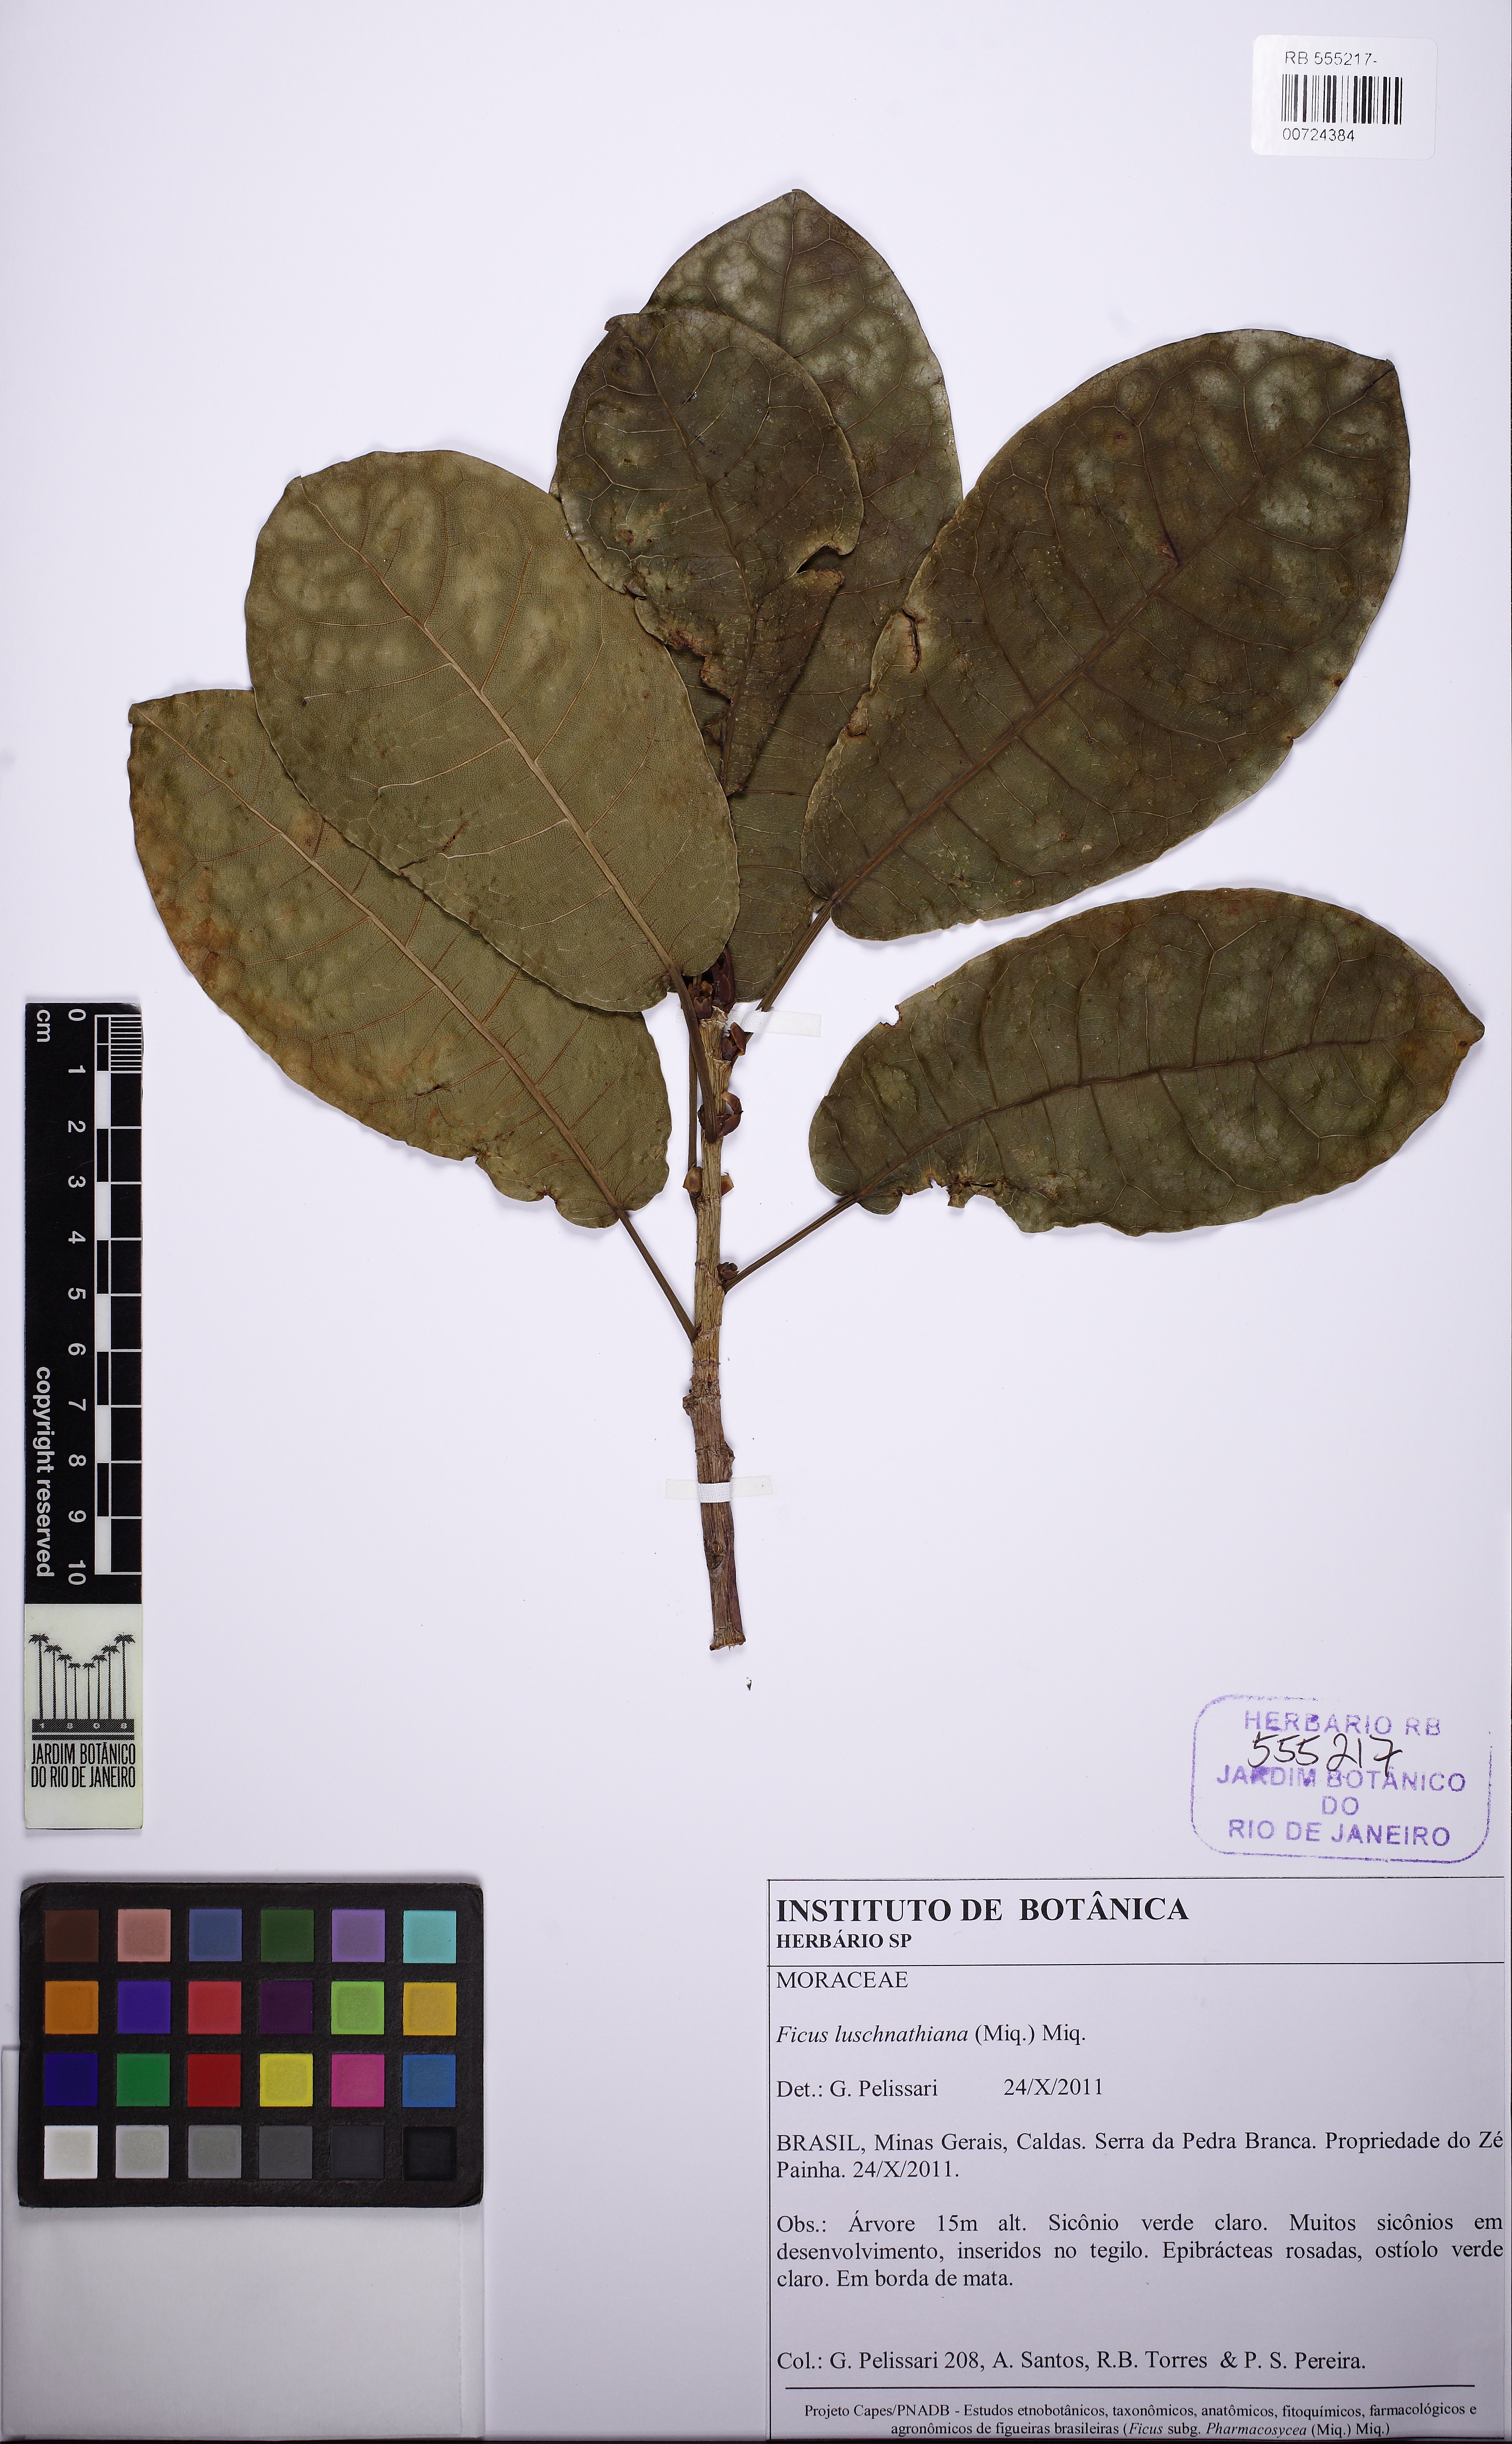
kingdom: Plantae
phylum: Tracheophyta
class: Magnoliopsida
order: Rosales
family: Moraceae
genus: Ficus
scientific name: Ficus luschnathiana
